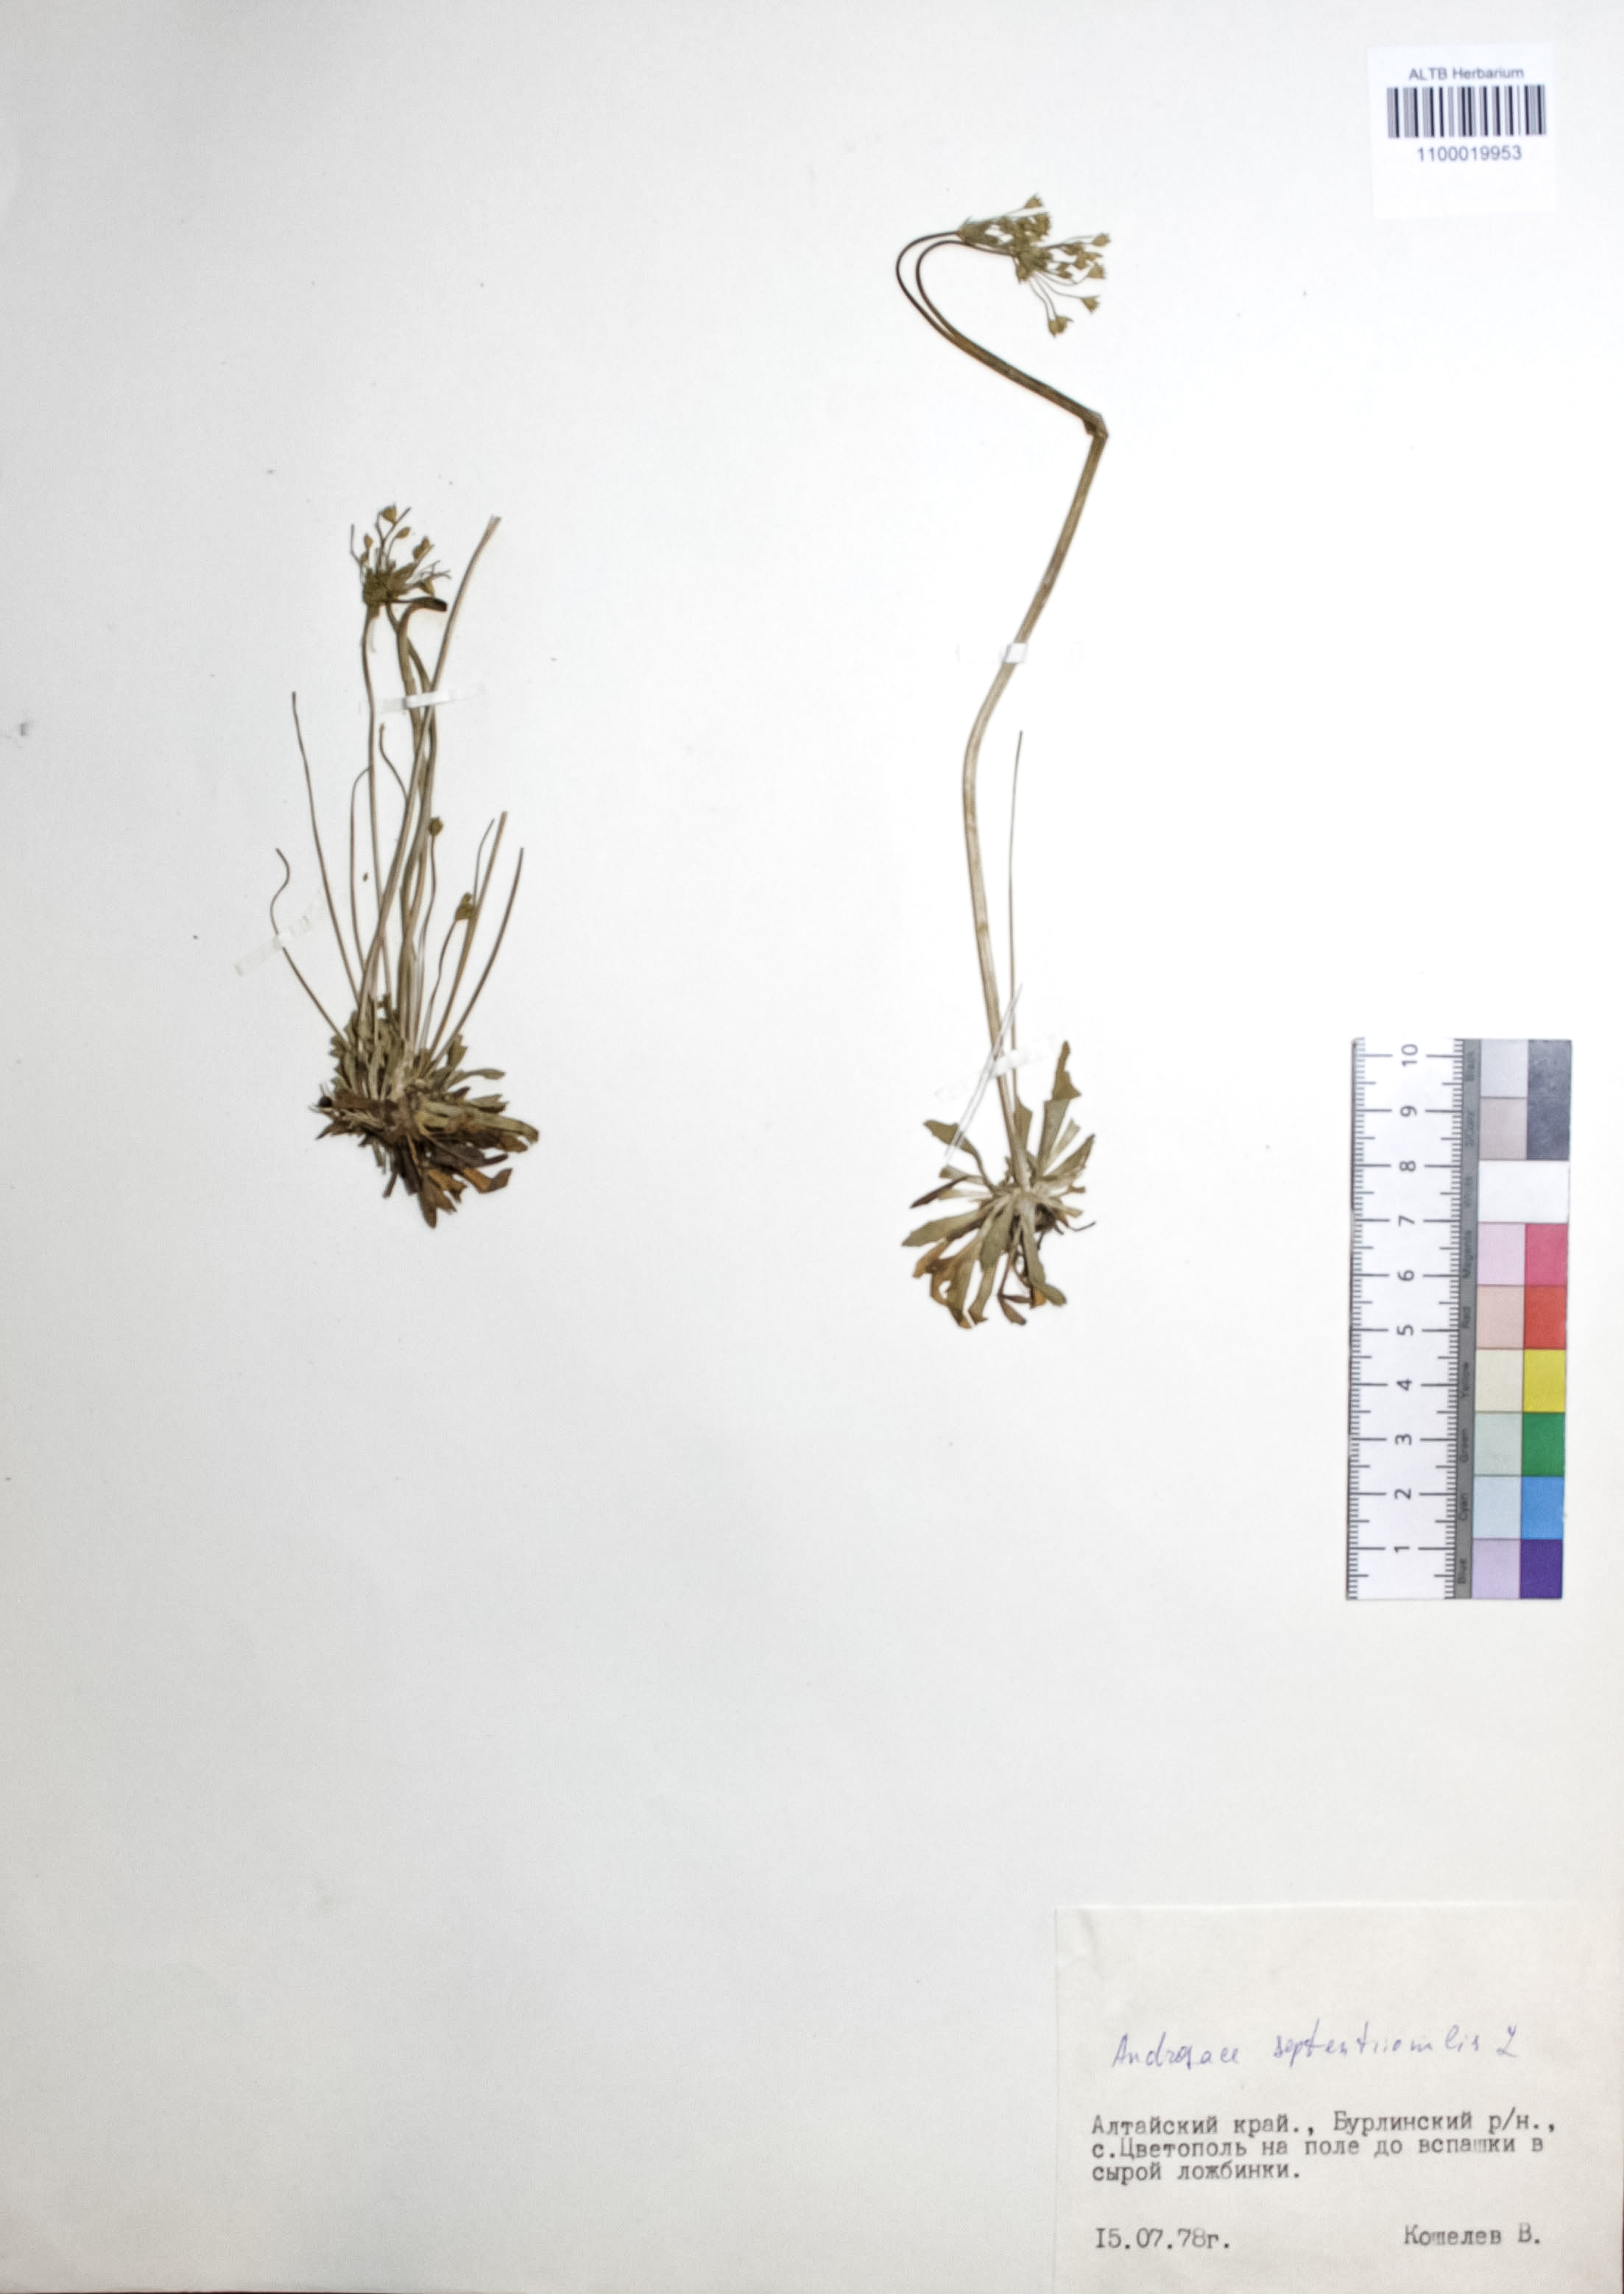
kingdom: Plantae
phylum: Tracheophyta
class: Magnoliopsida
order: Ericales
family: Primulaceae
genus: Androsace
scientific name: Androsace septentrionalis
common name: Hairy northern fairy-candelabra
